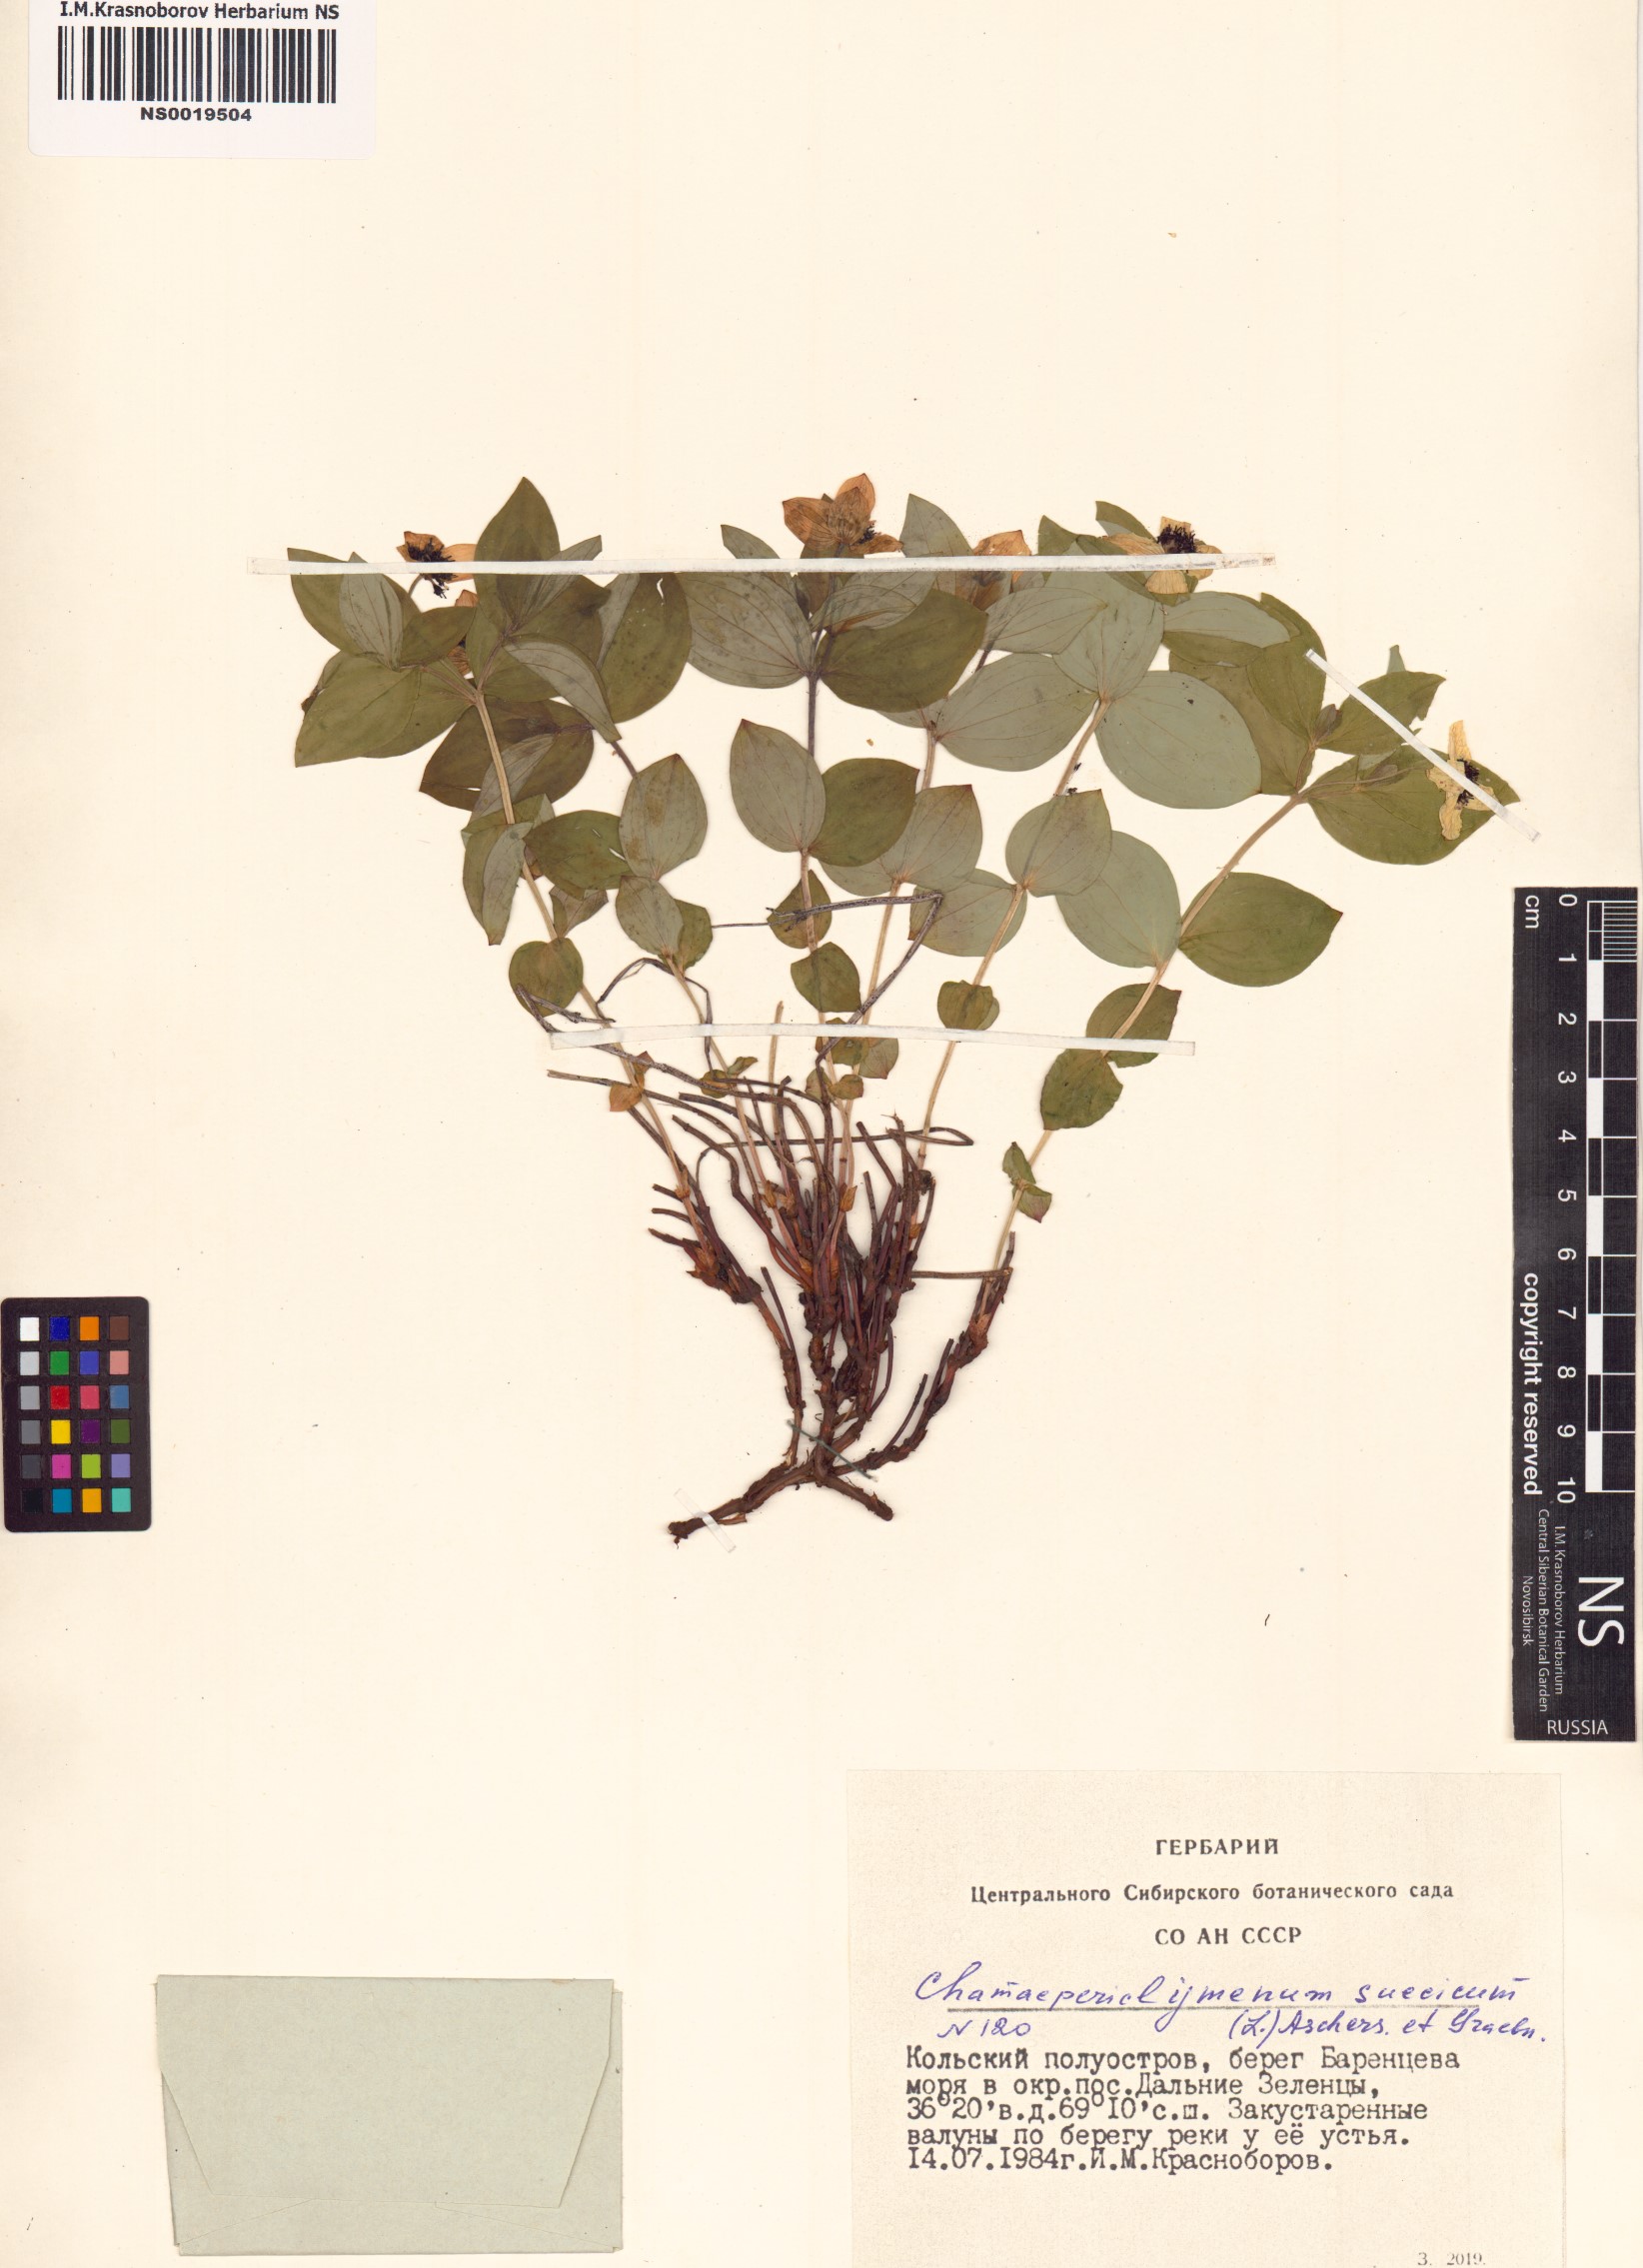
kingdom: Plantae
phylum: Tracheophyta
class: Magnoliopsida
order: Cornales
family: Cornaceae
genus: Cornus
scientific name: Cornus suecica
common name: Dwarf cornel
